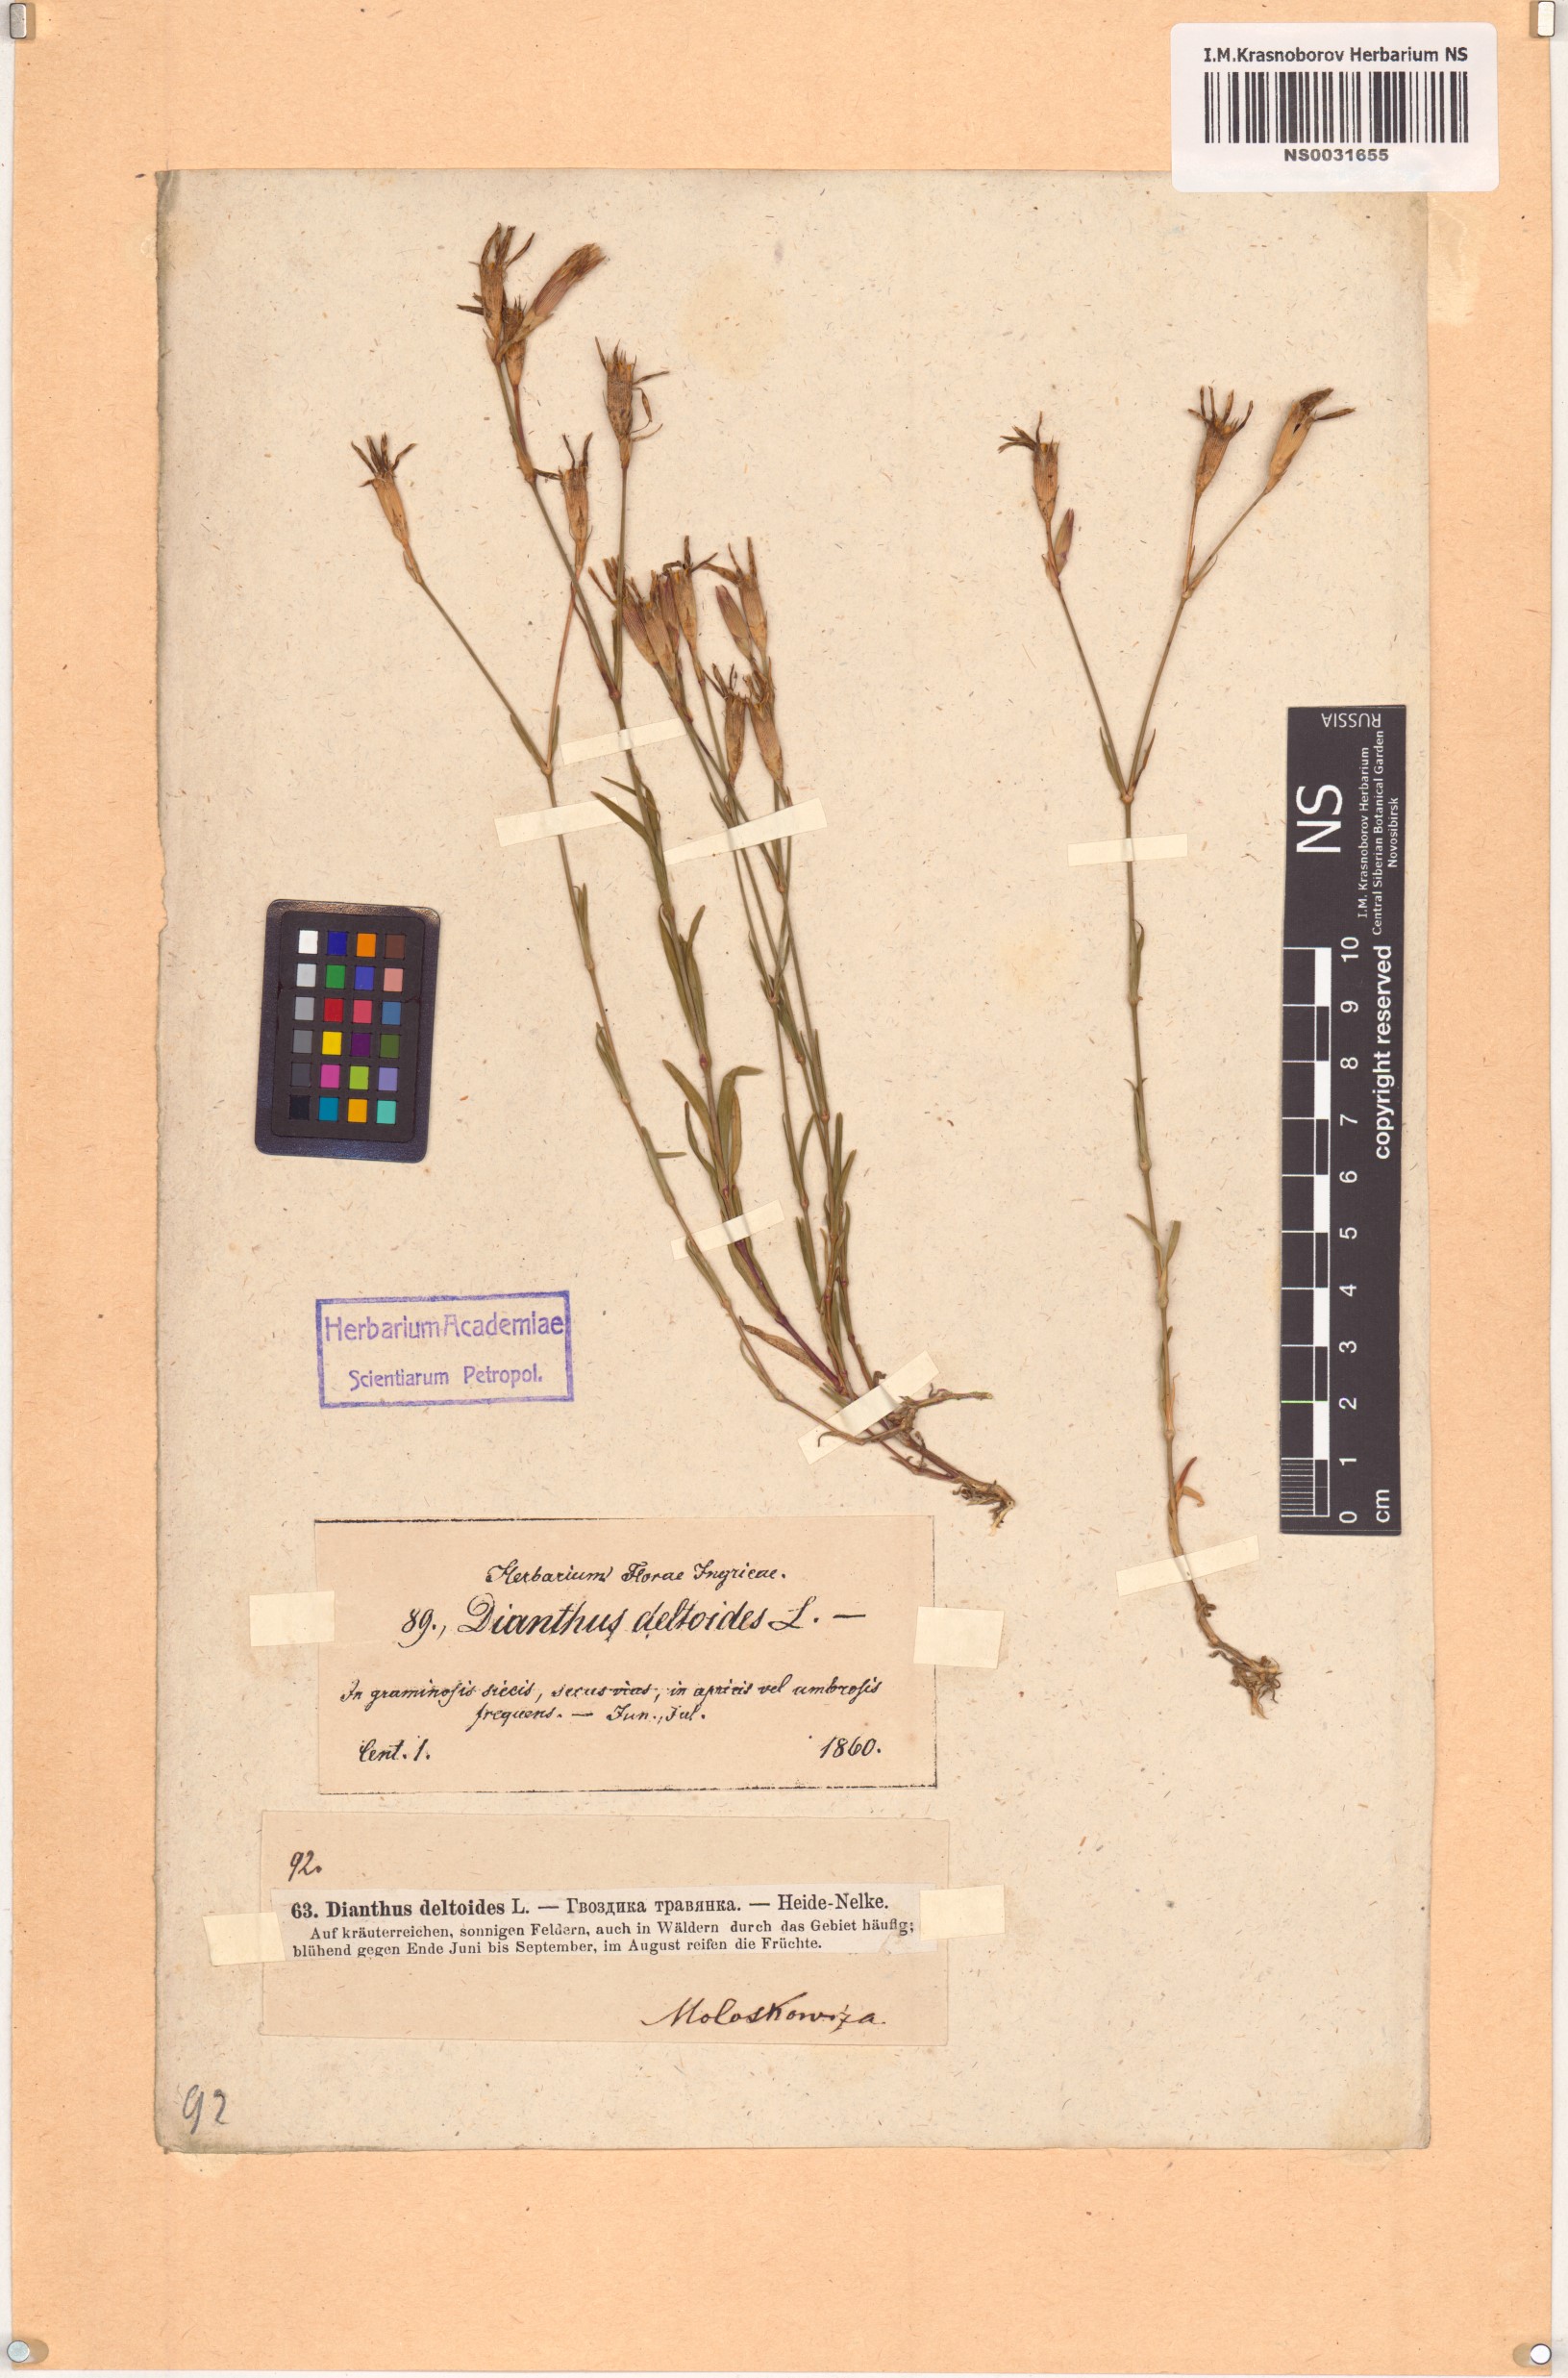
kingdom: Plantae
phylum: Tracheophyta
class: Magnoliopsida
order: Caryophyllales
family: Caryophyllaceae
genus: Dianthus
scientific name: Dianthus deltoides
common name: Maiden pink
